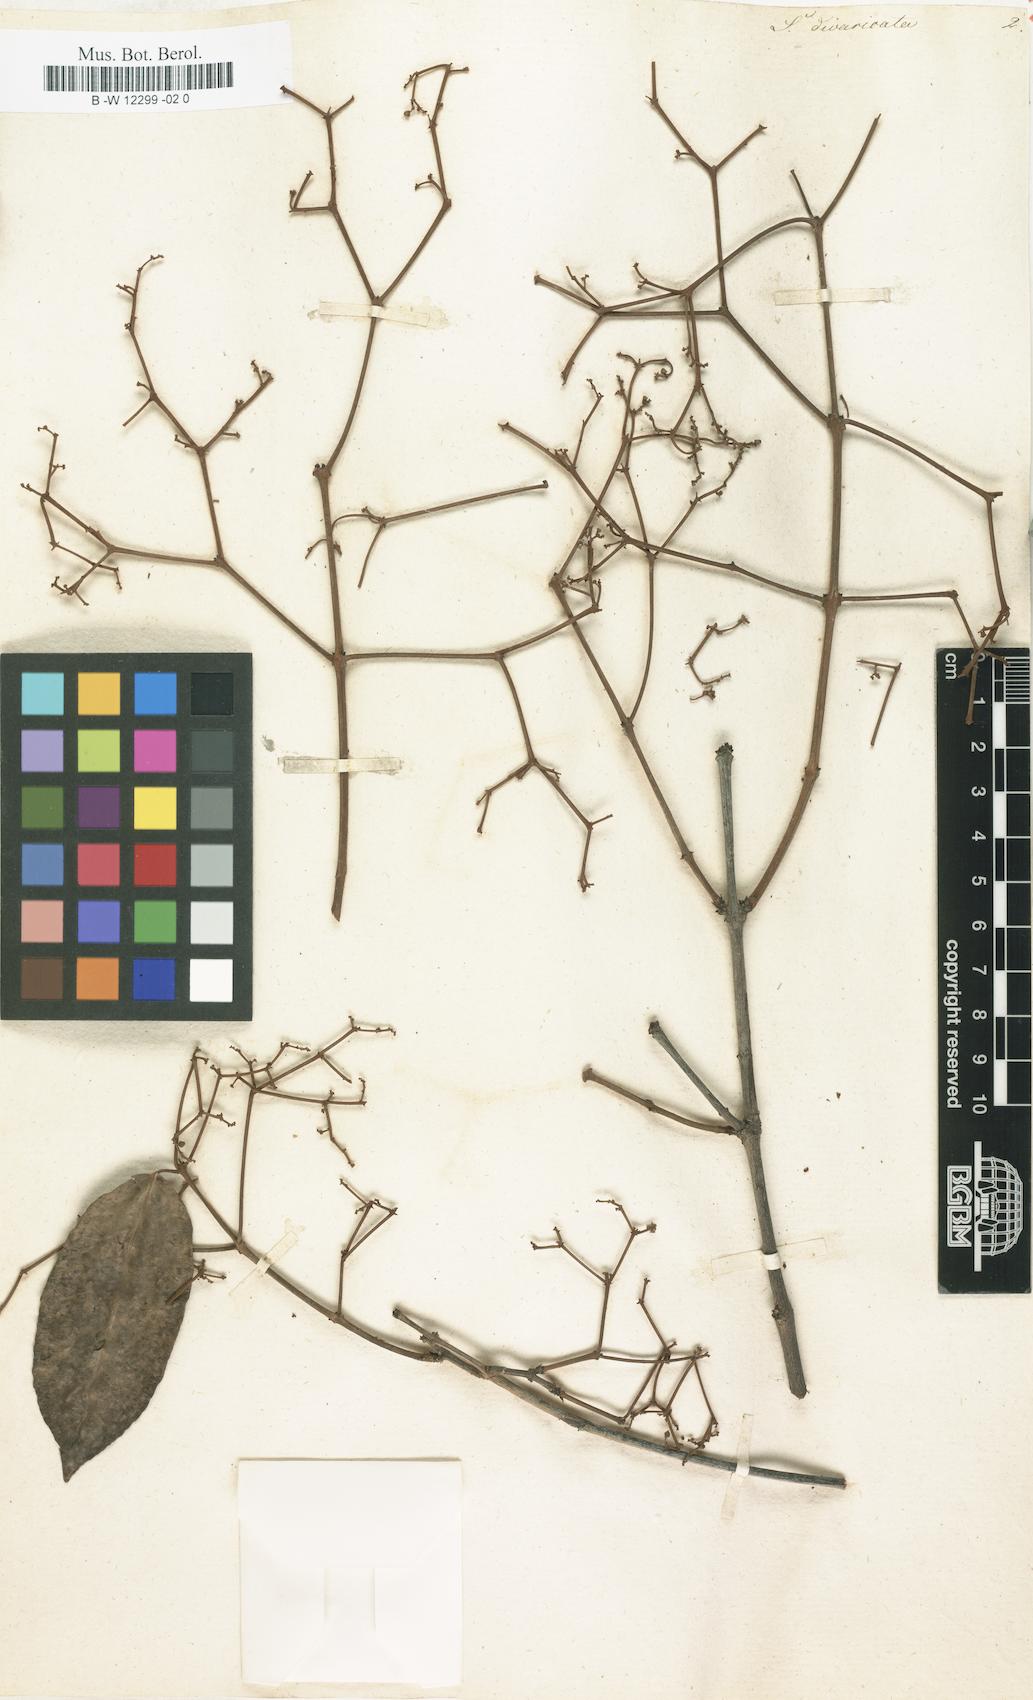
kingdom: Plantae
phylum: Tracheophyta
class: Magnoliopsida
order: Zygophyllales
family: Zygophyllaceae
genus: Seetzenia
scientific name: Seetzenia
